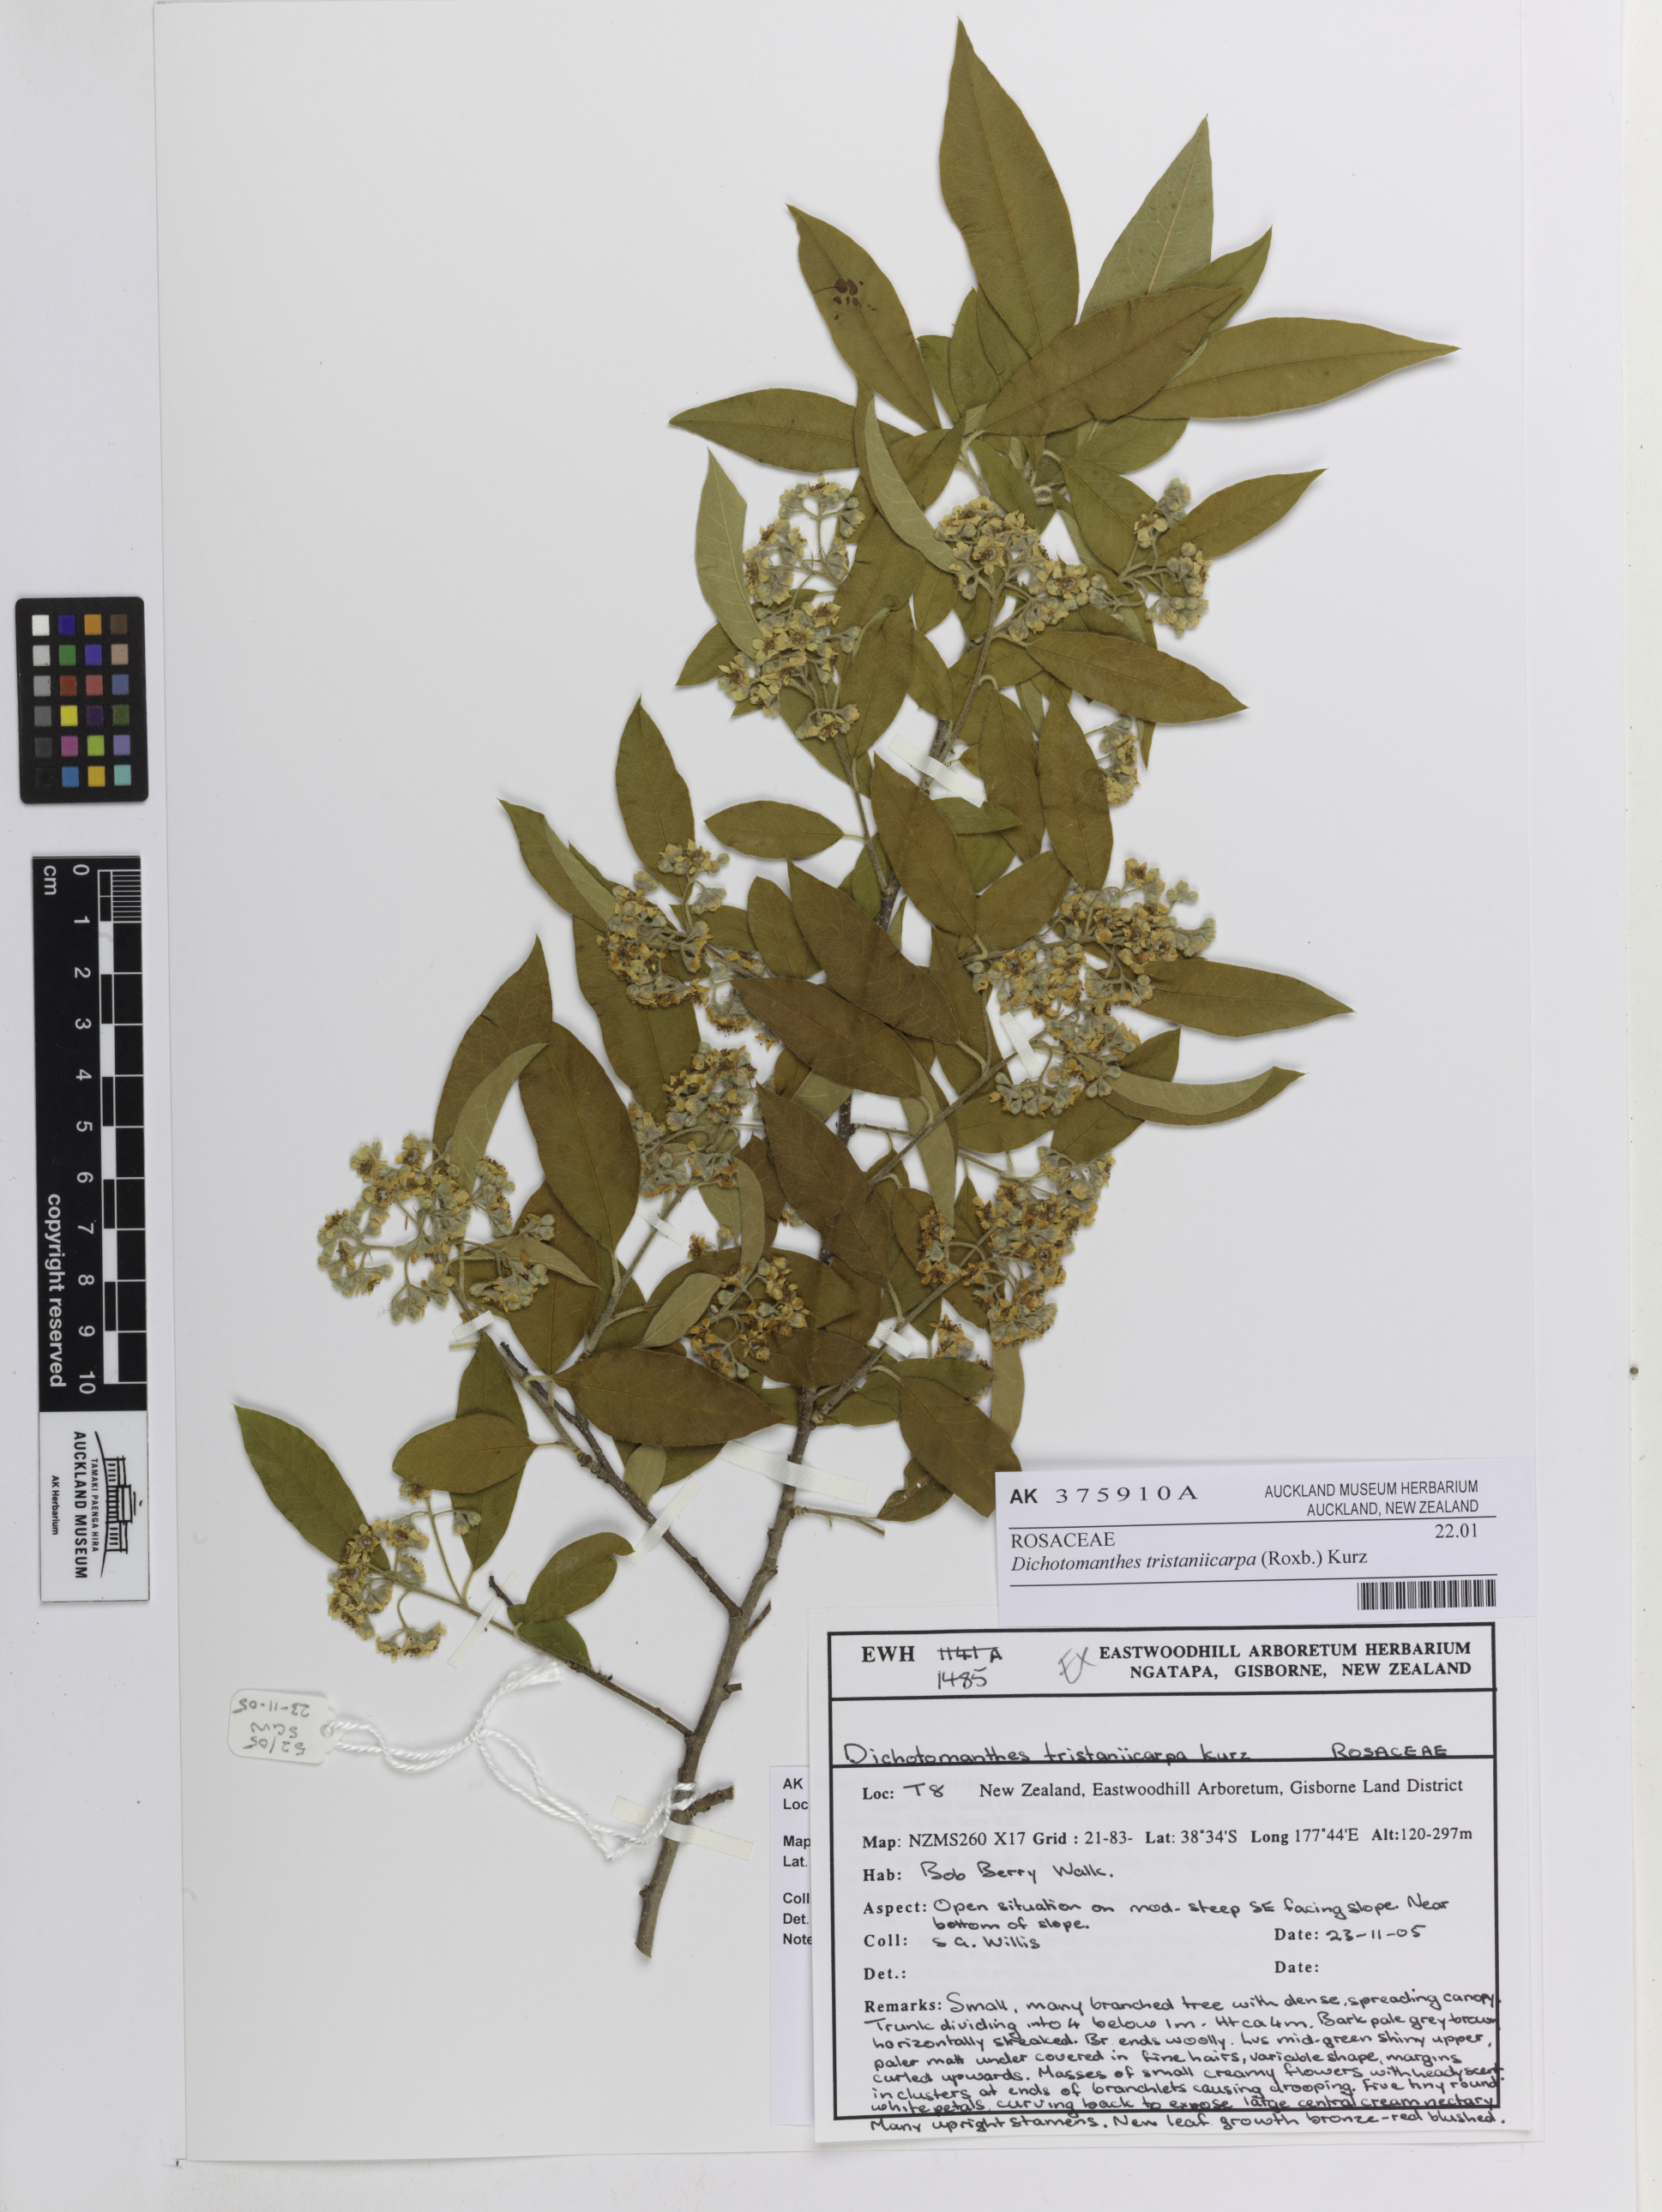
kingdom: Plantae
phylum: Tracheophyta
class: Magnoliopsida
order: Rosales
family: Rosaceae
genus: Dichotomanthes
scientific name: Dichotomanthes tristaniicarpa
